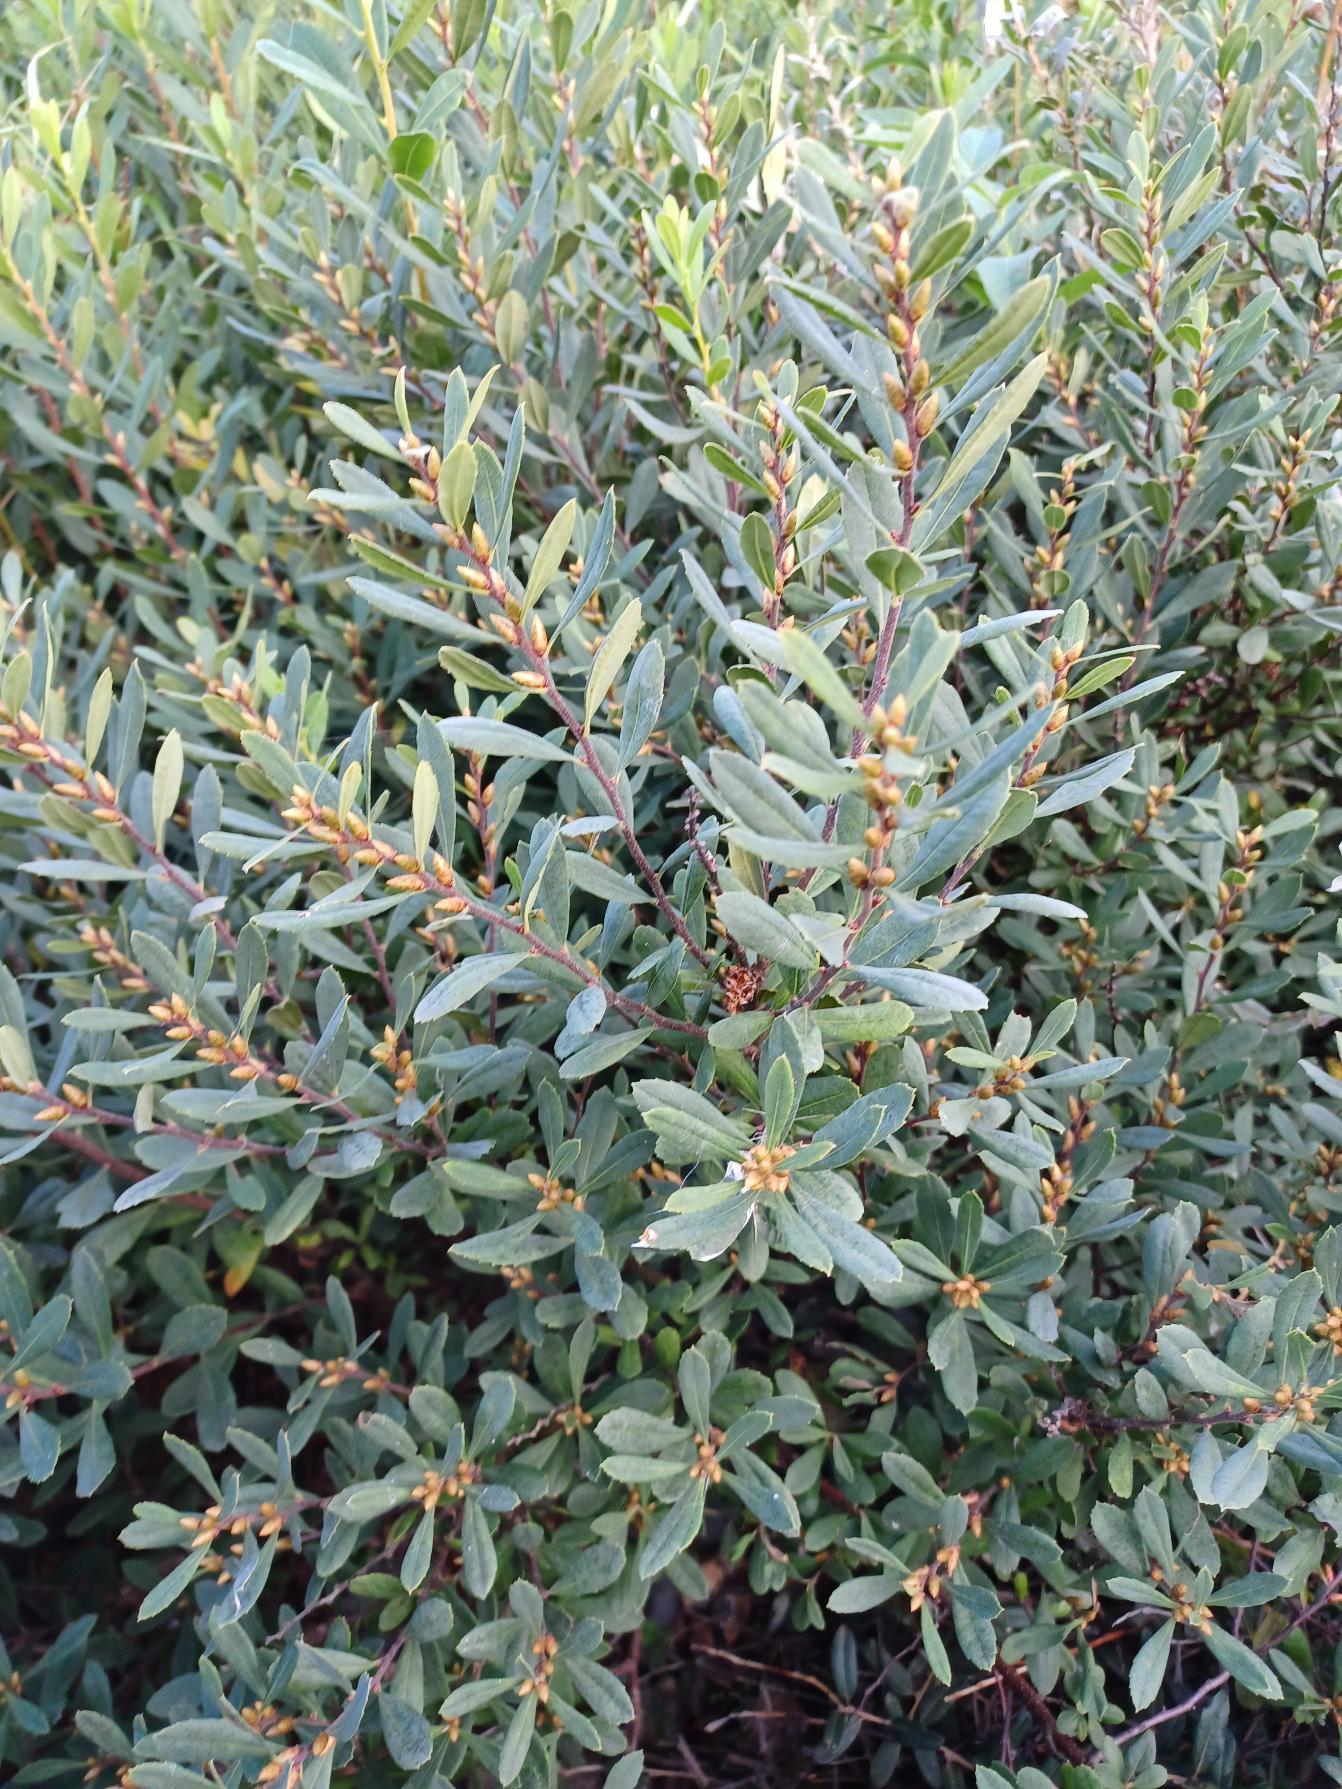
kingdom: Plantae
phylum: Tracheophyta
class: Magnoliopsida
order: Fagales
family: Myricaceae
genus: Myrica
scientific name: Myrica gale
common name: Pors
